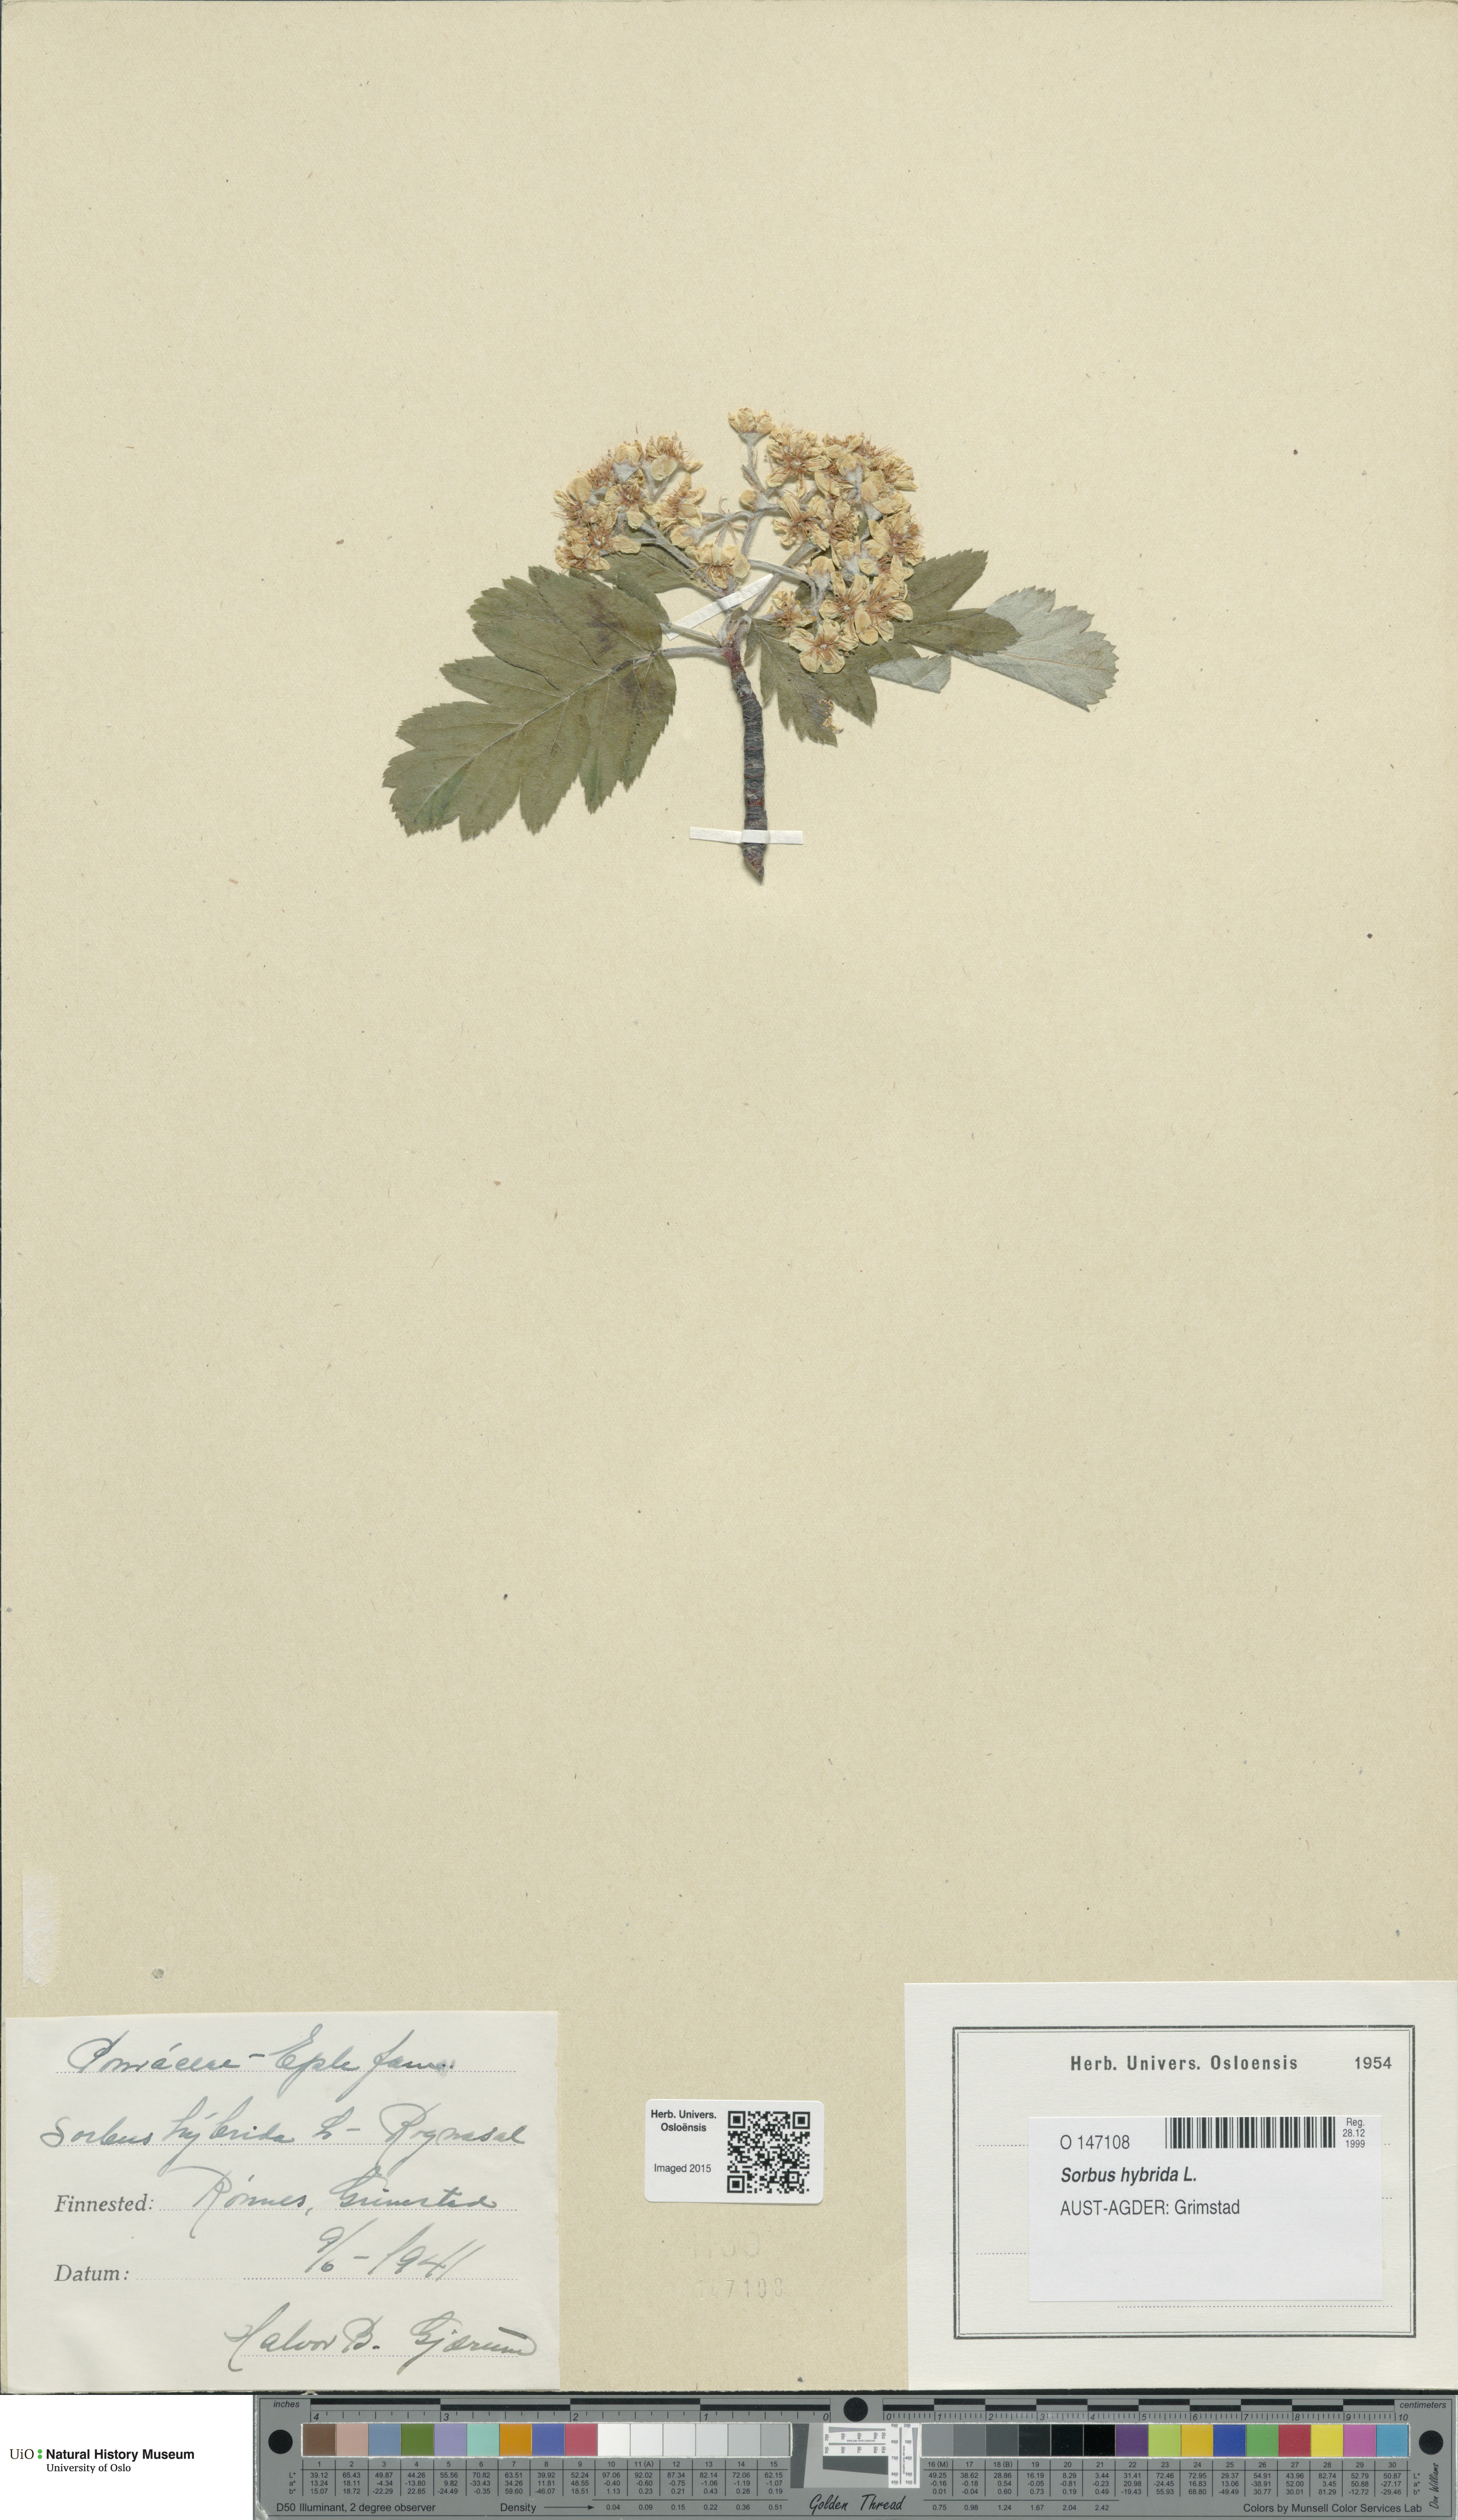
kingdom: Plantae
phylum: Tracheophyta
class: Magnoliopsida
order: Rosales
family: Rosaceae
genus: Hedlundia
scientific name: Hedlundia hybrida
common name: Swedish service-tree
